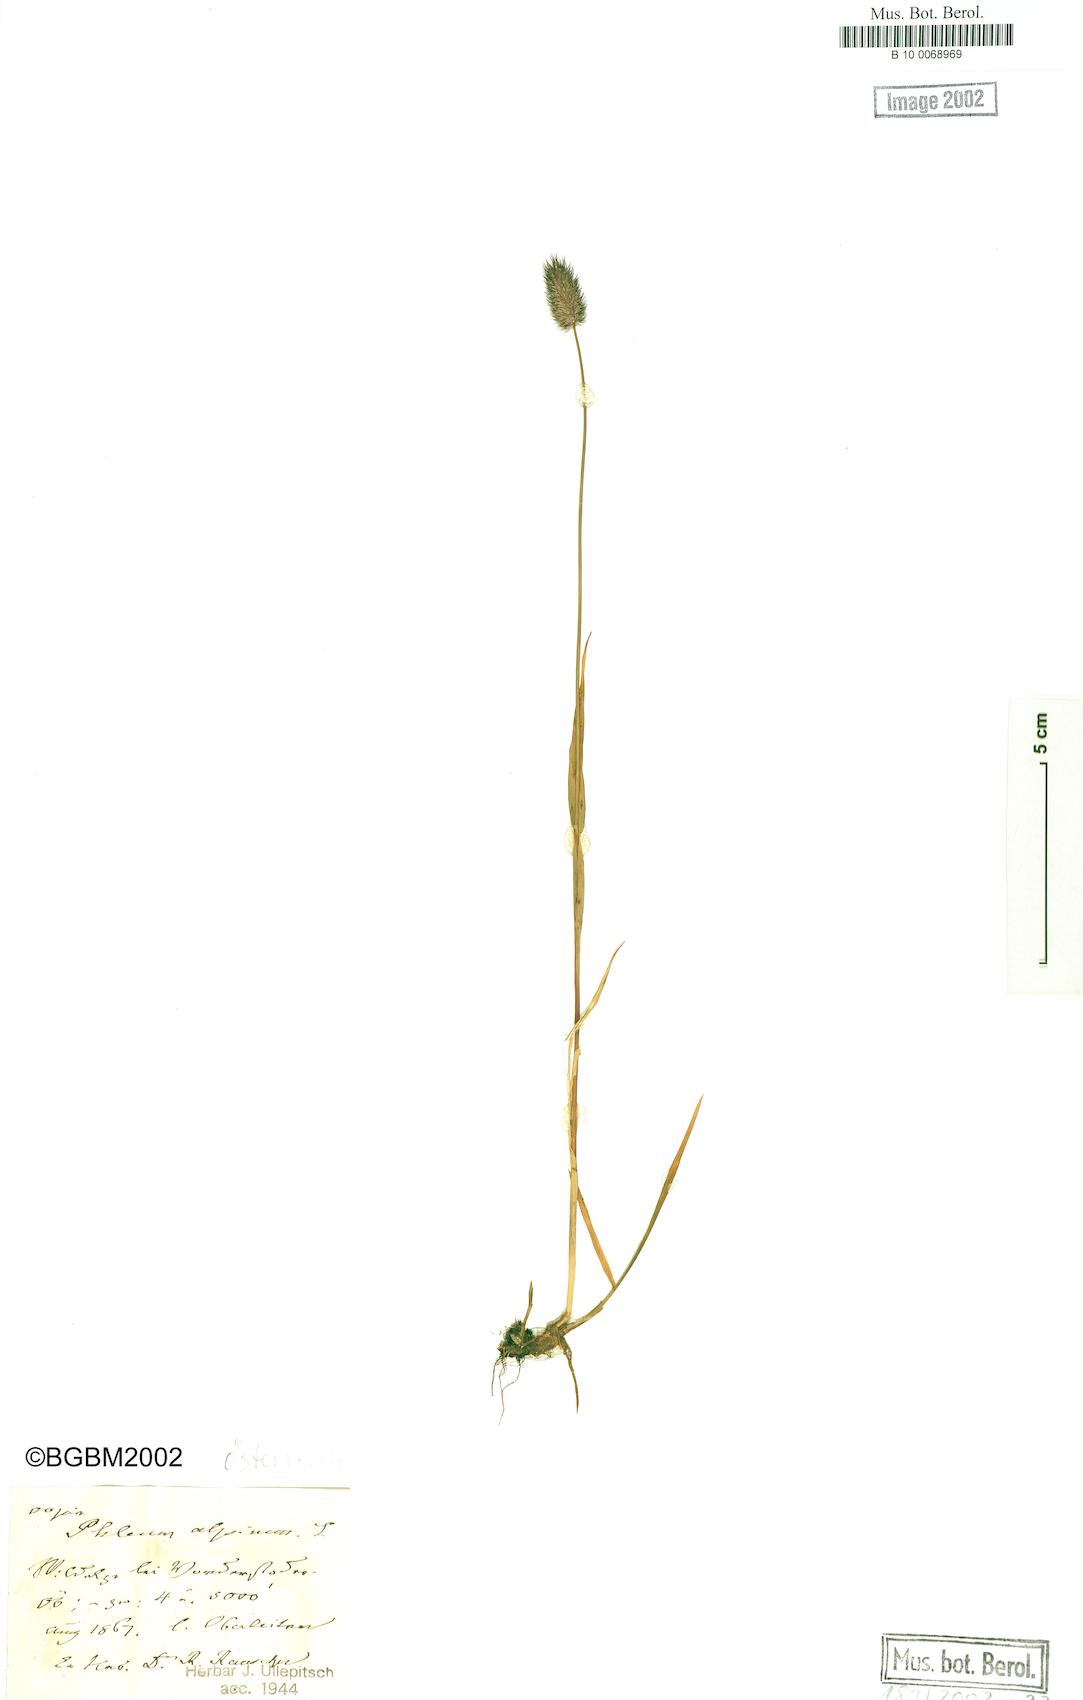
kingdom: Plantae
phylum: Tracheophyta
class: Liliopsida
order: Poales
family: Poaceae
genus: Phleum
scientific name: Phleum alpinum
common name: Alpine cat's-tail
